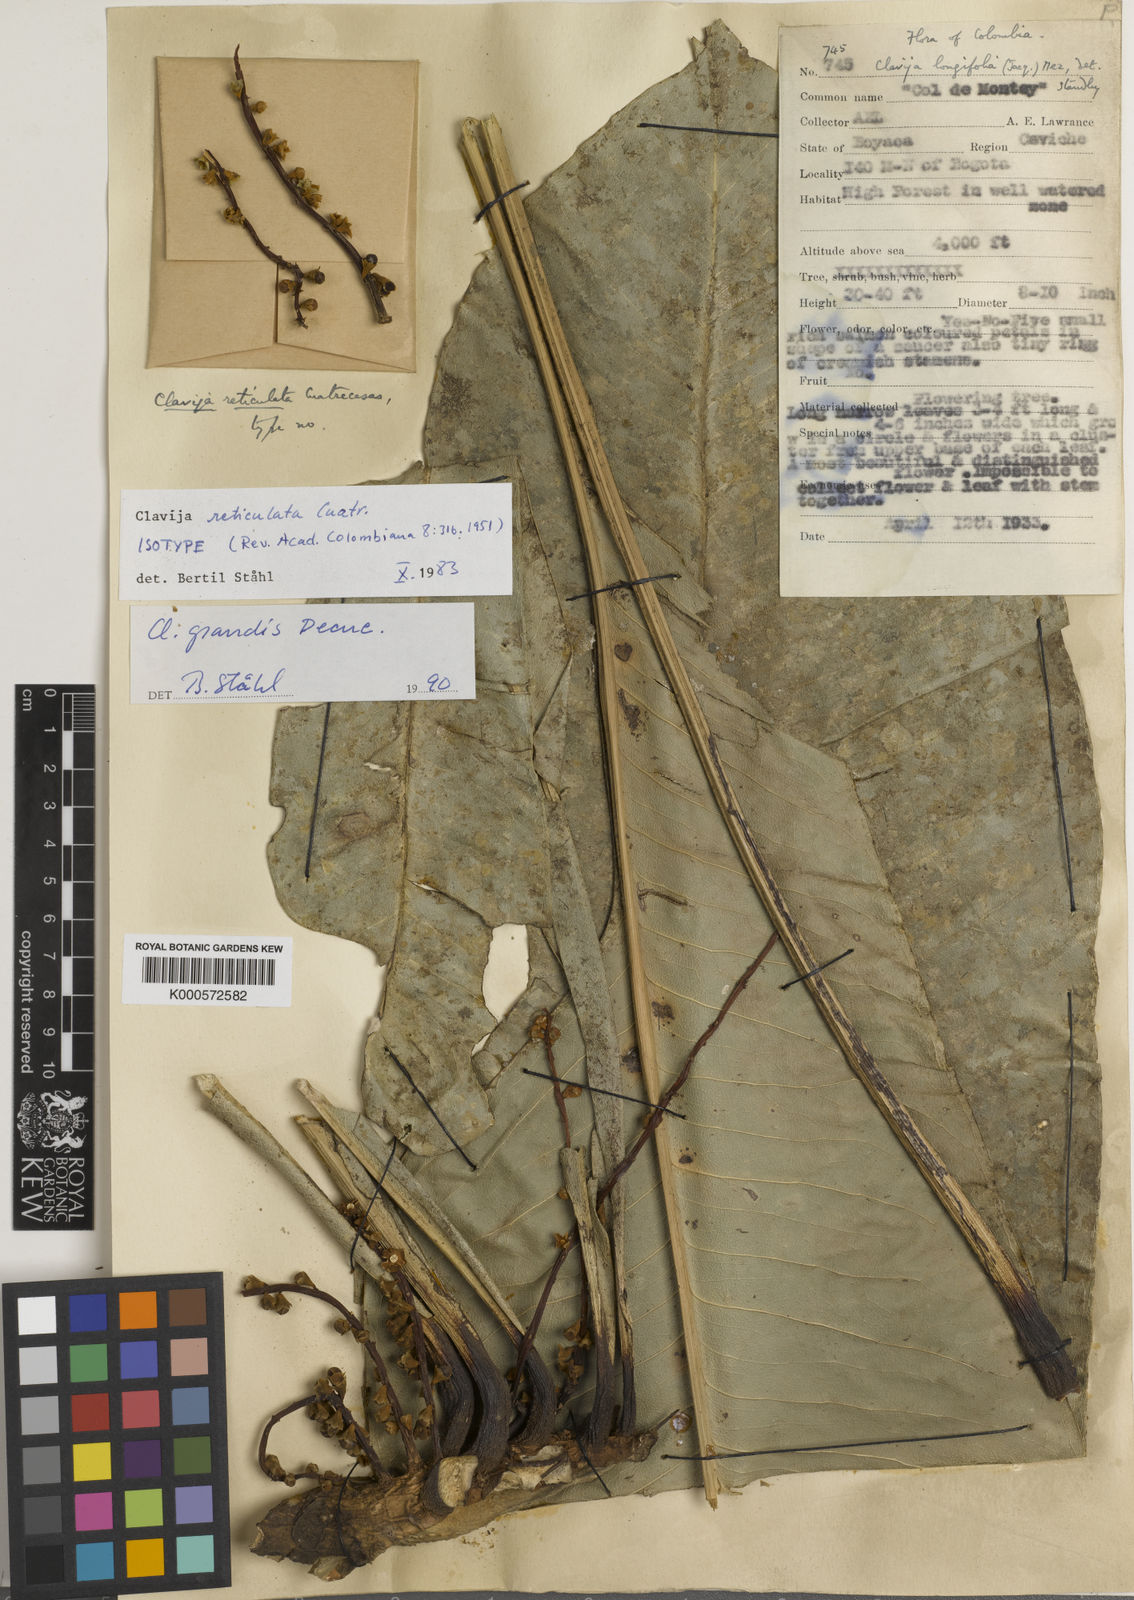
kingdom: Plantae
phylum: Tracheophyta
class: Magnoliopsida
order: Ericales
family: Primulaceae
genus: Clavija
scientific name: Clavija grandis
